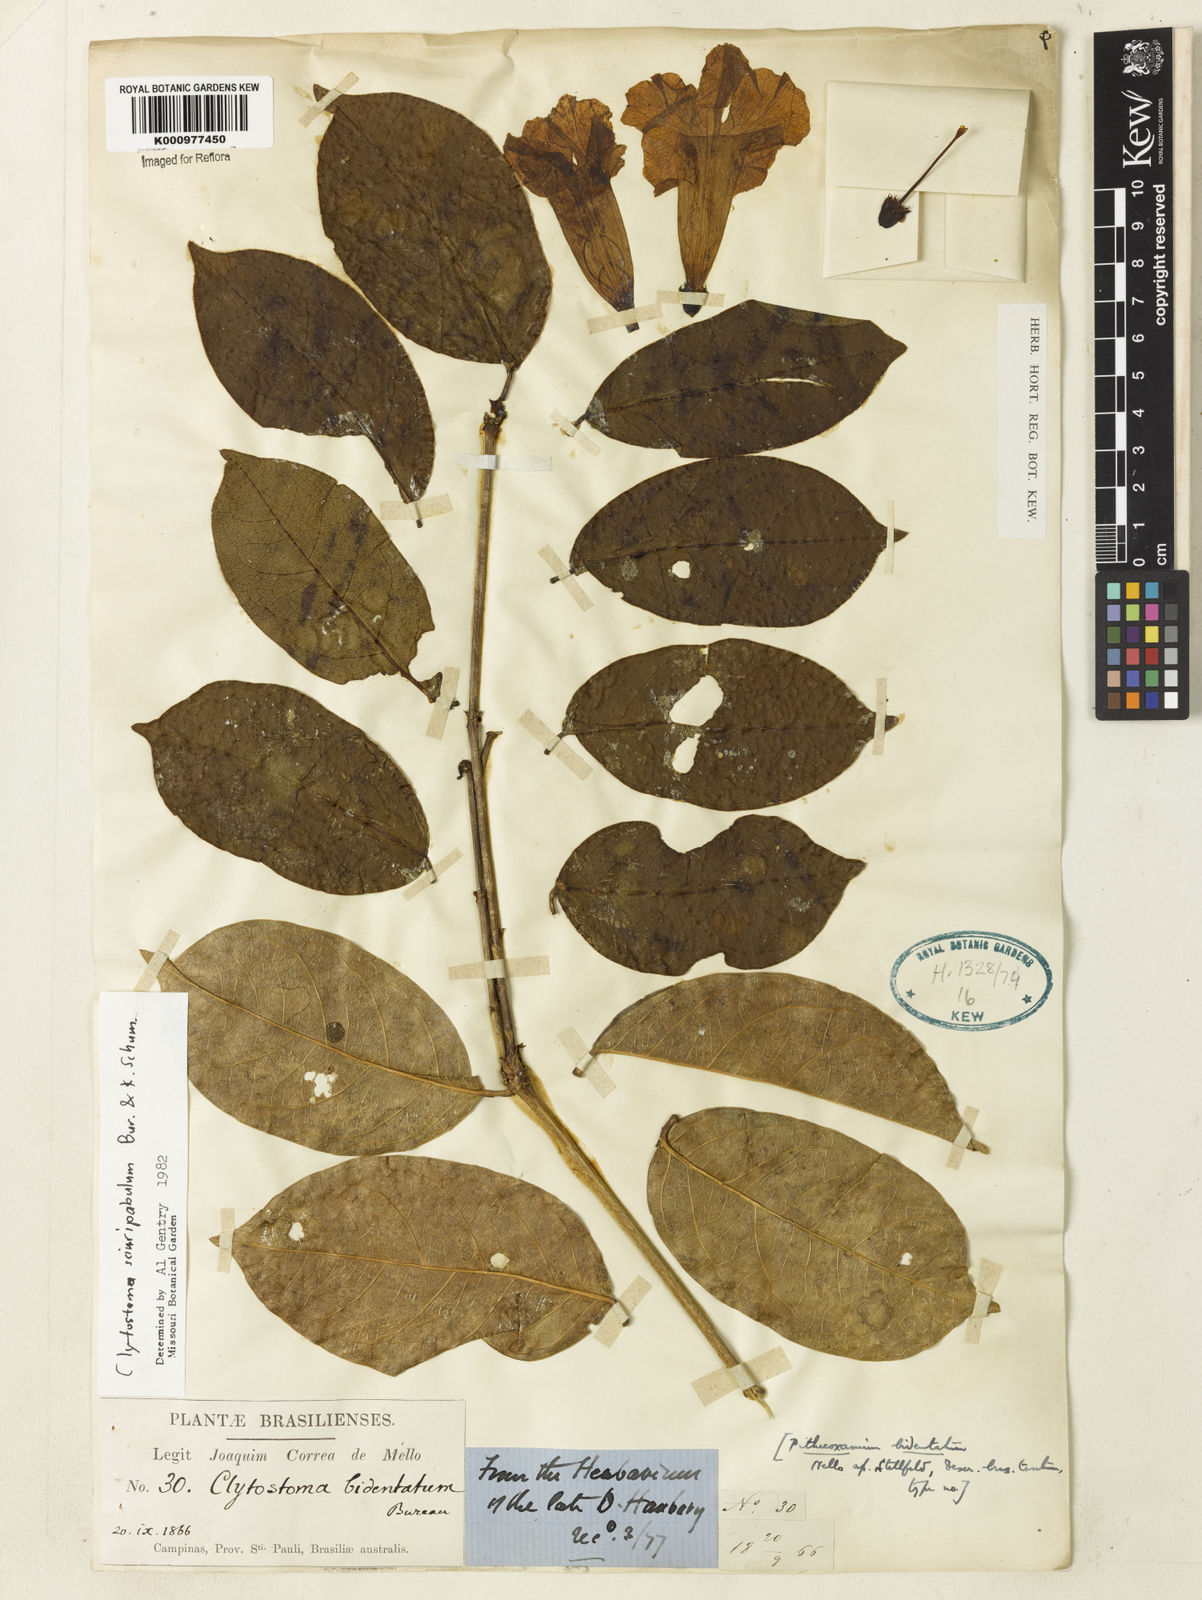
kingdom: Plantae
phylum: Tracheophyta
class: Magnoliopsida
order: Lamiales
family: Bignoniaceae
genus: Bignonia
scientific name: Bignonia
